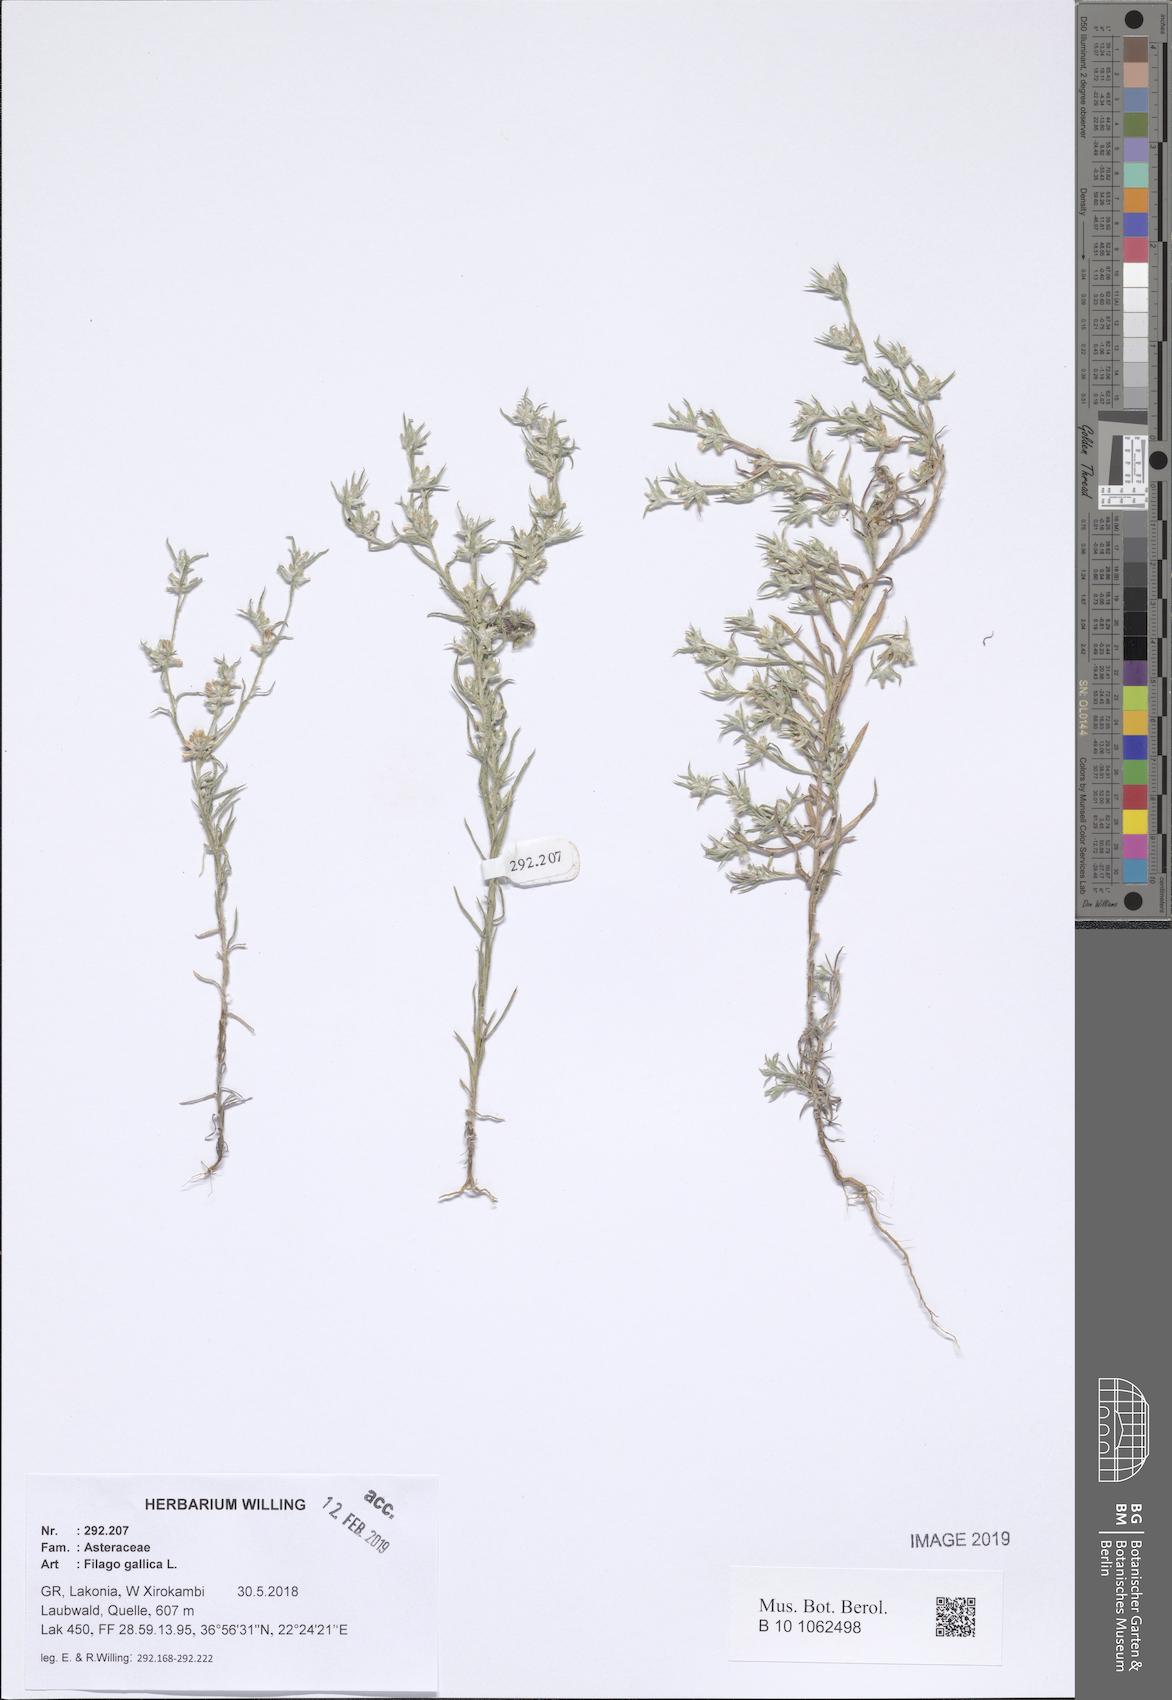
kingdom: Plantae
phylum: Tracheophyta
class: Magnoliopsida
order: Asterales
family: Asteraceae
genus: Logfia
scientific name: Logfia gallica
